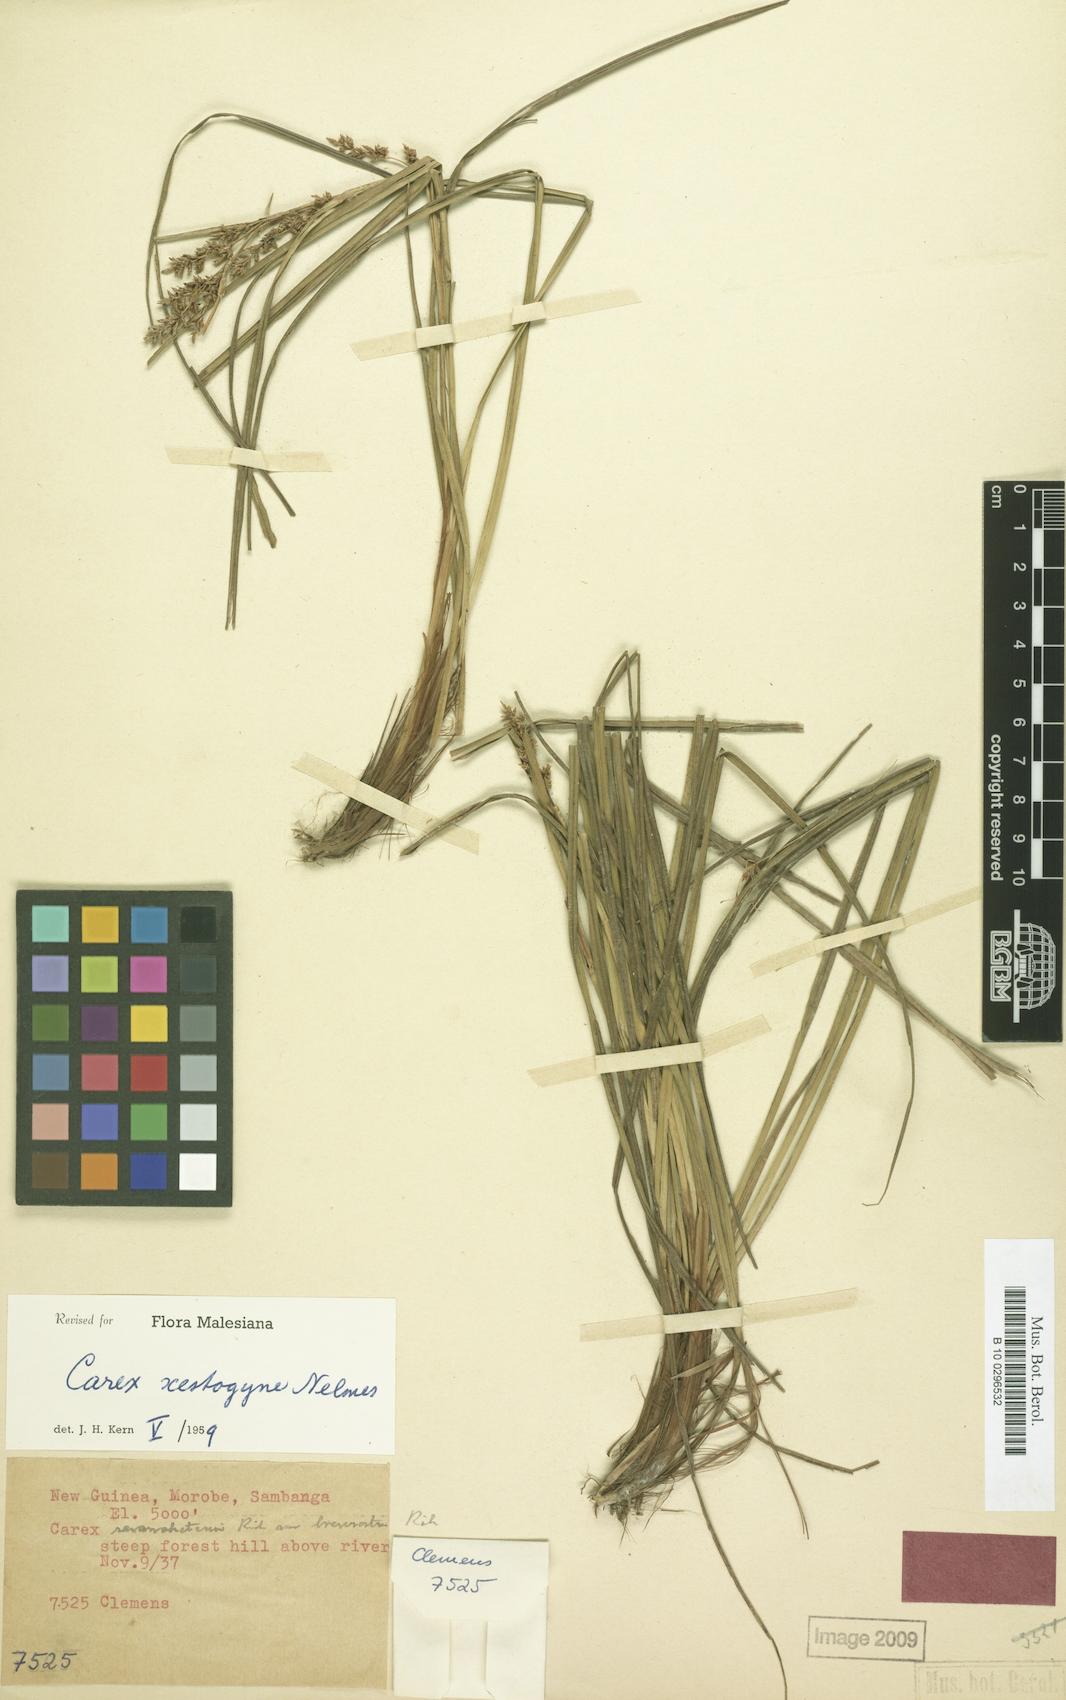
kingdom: Plantae
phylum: Tracheophyta
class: Liliopsida
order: Poales
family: Cyperaceae
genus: Carex
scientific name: Carex rafflesiana
